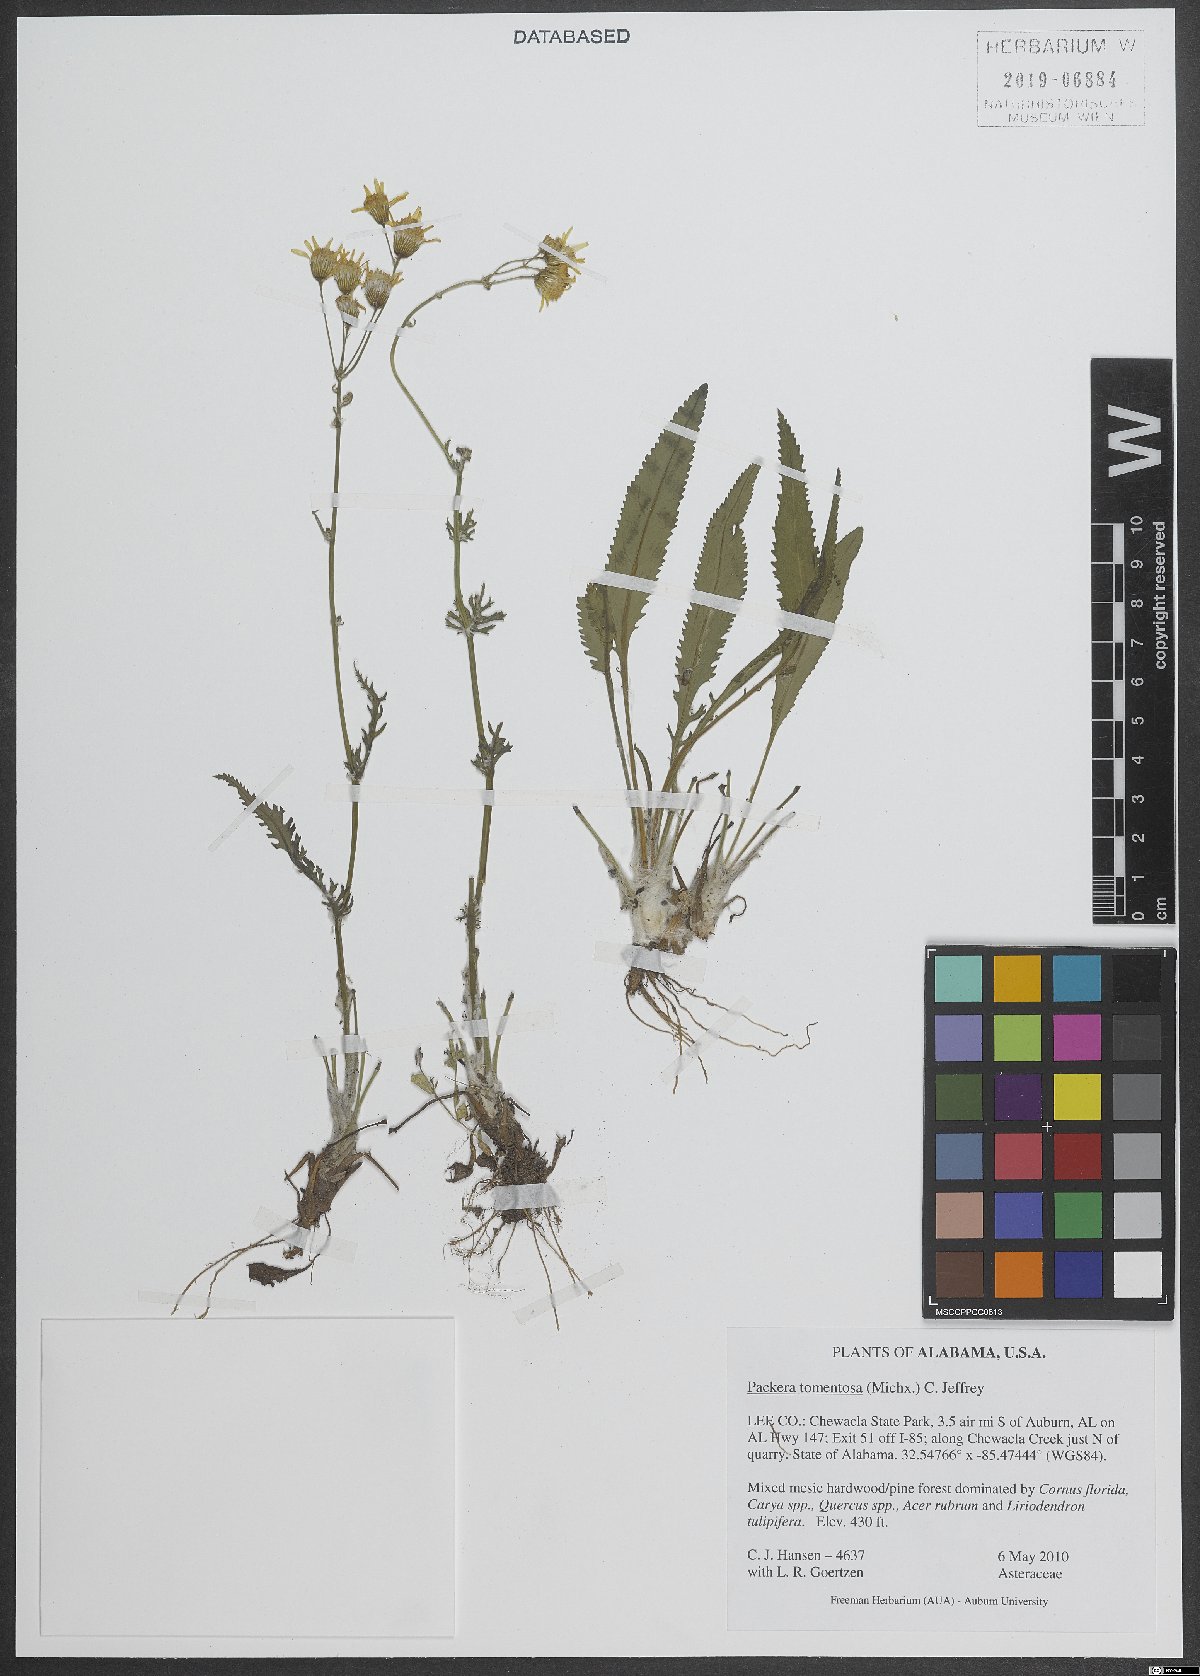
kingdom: Plantae
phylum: Tracheophyta
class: Magnoliopsida
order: Asterales
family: Asteraceae
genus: Packera
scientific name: Packera dubia
